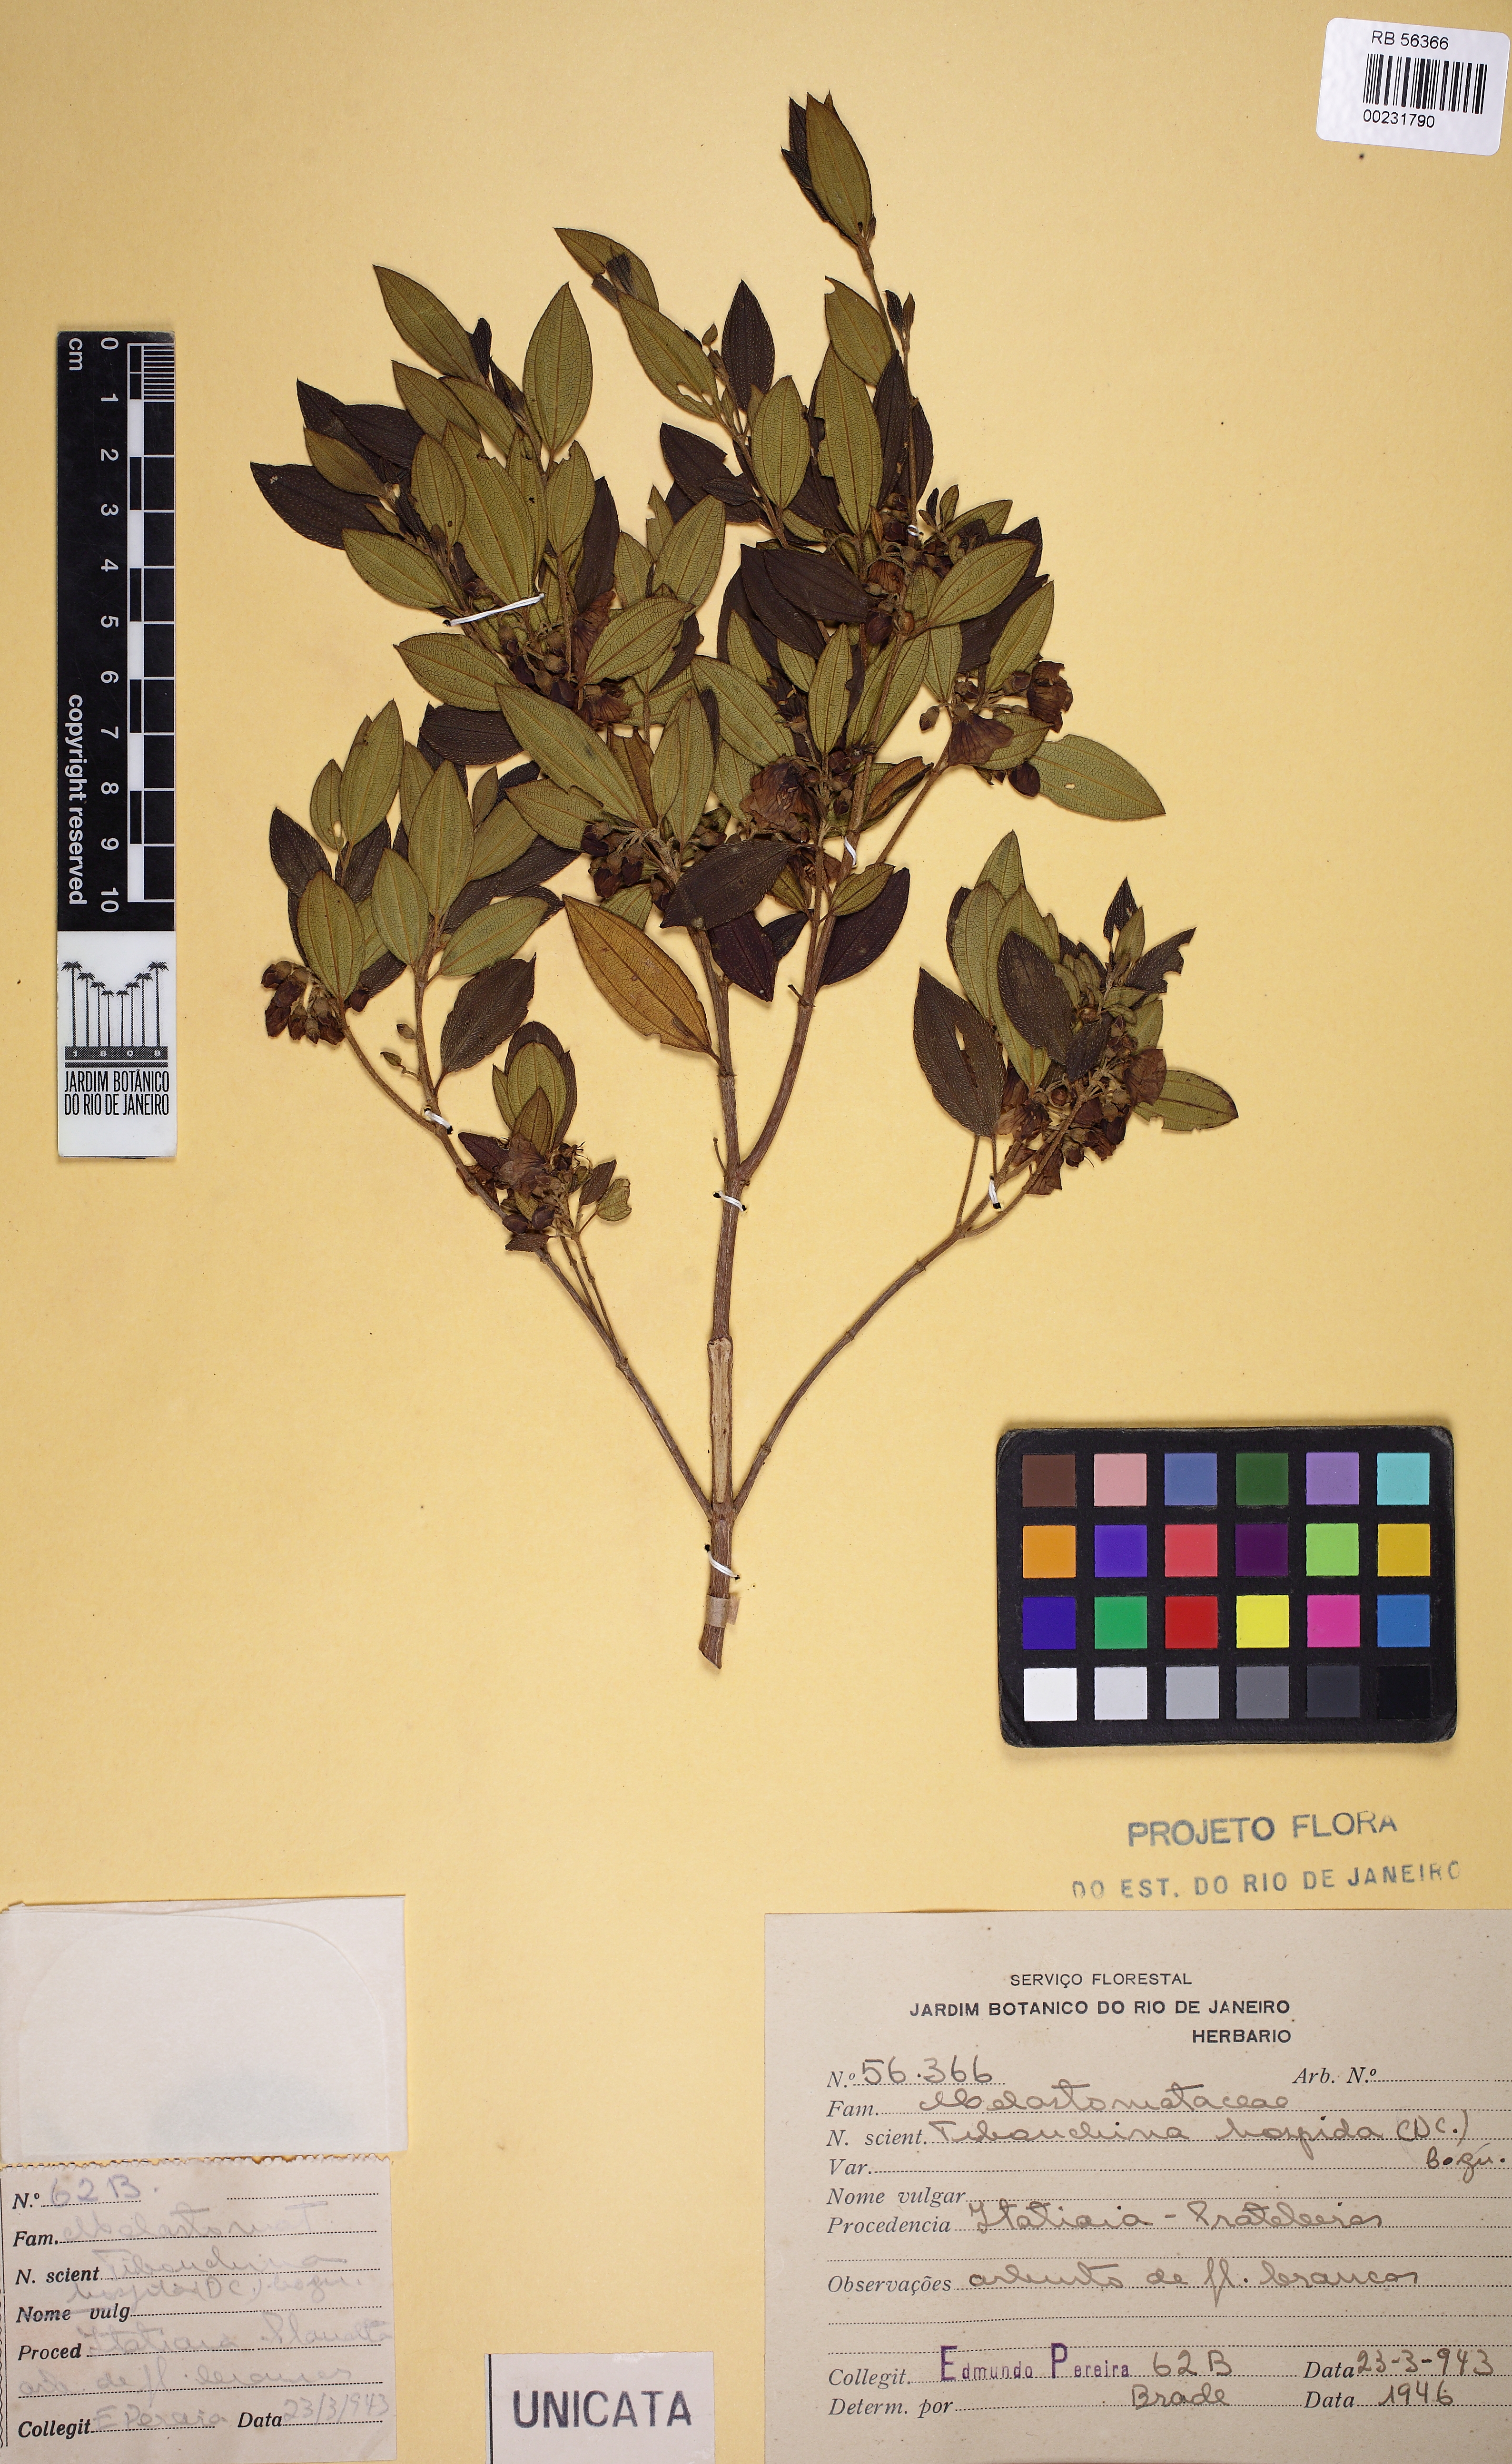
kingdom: Plantae
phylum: Tracheophyta
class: Magnoliopsida
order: Myrtales
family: Melastomataceae
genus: Pleroma
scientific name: Pleroma hospitum
